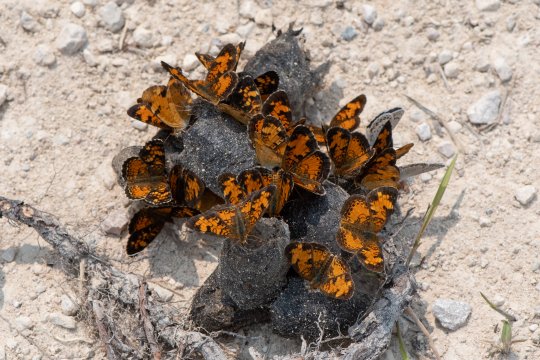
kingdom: Animalia
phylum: Arthropoda
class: Insecta
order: Lepidoptera
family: Nymphalidae
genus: Phyciodes
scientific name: Phyciodes tharos
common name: Northern Crescent
